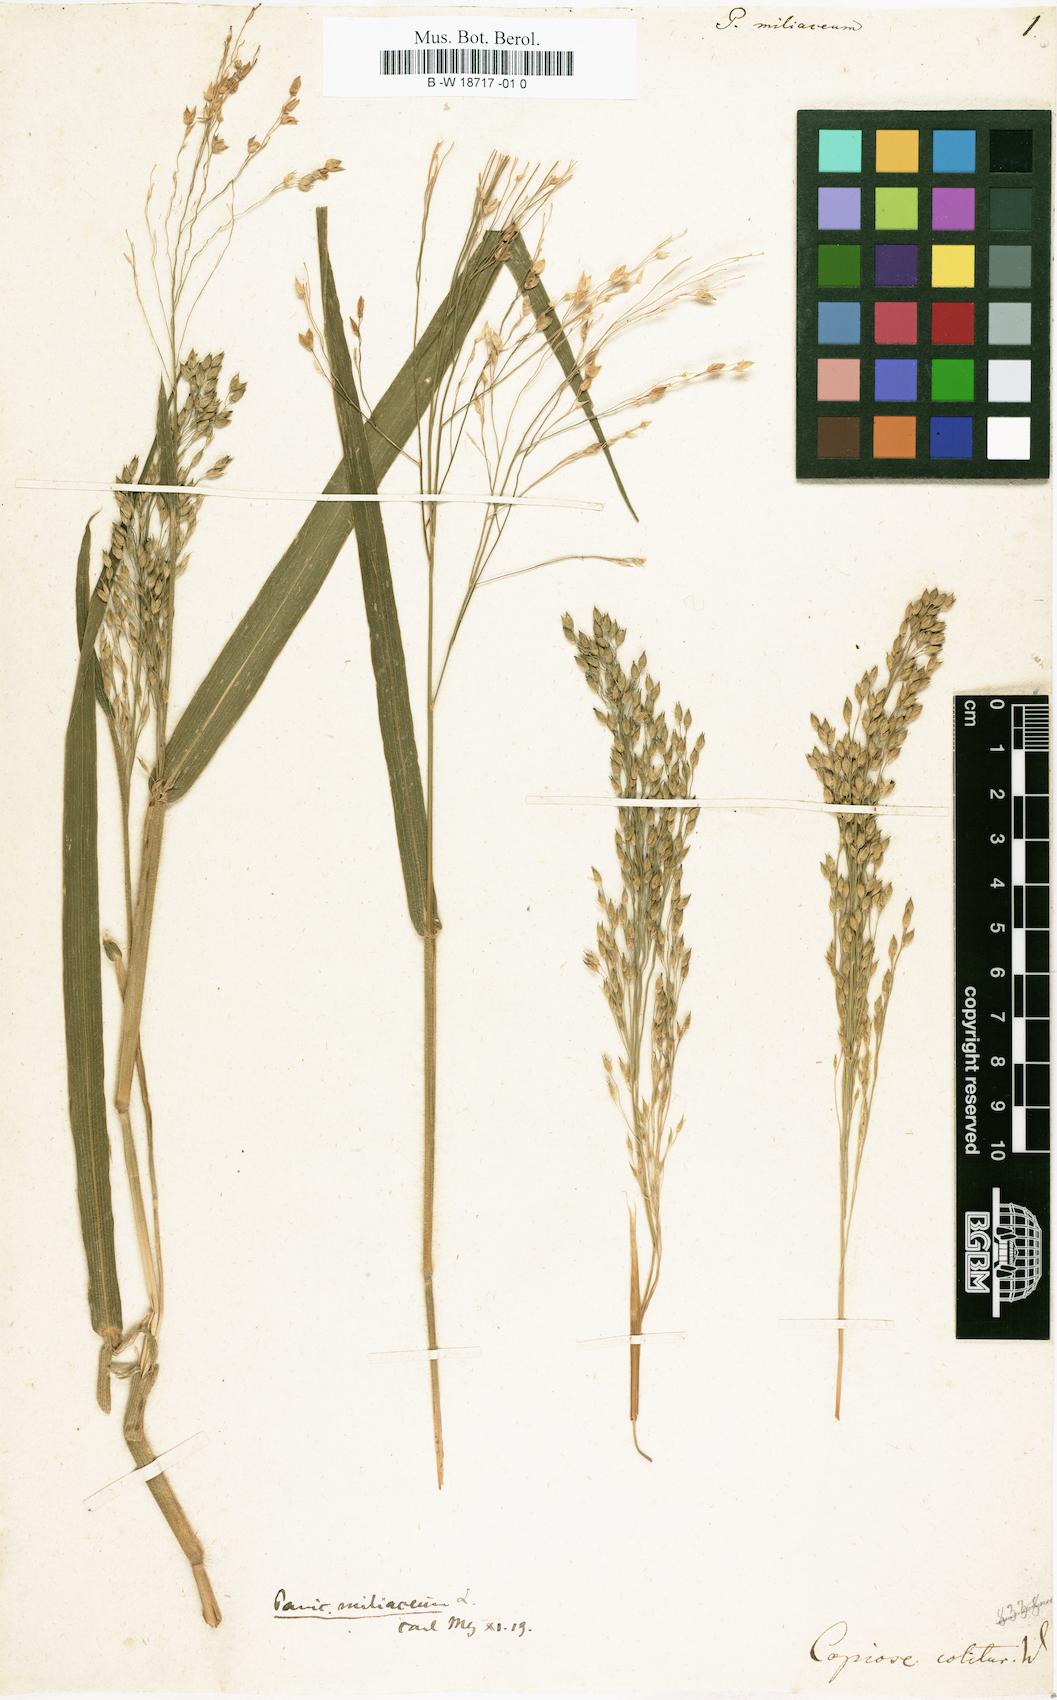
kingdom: Plantae
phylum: Tracheophyta
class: Liliopsida
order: Poales
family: Poaceae
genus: Panicum
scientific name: Panicum miliaceum
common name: Common millet
